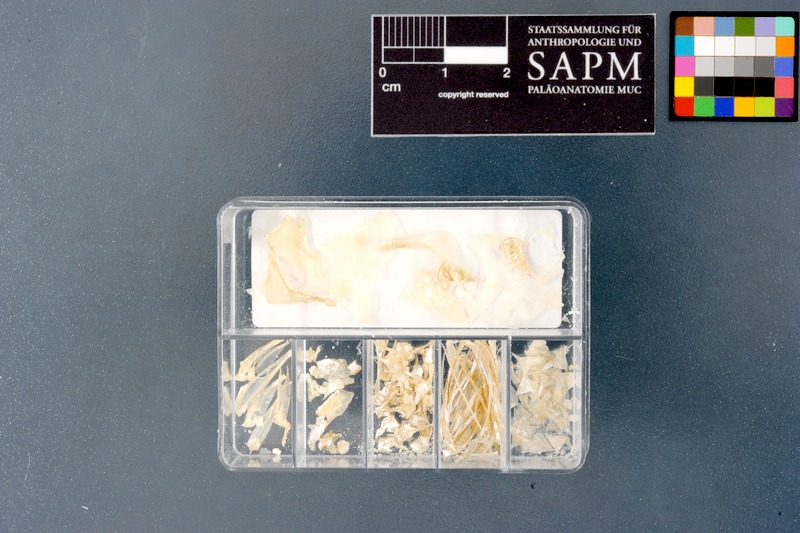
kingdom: Animalia
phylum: Chordata
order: Cypriniformes
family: Cyprinidae
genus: Trigonostigma
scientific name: Trigonostigma somphongsi
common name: Somphongs’s rasbora
